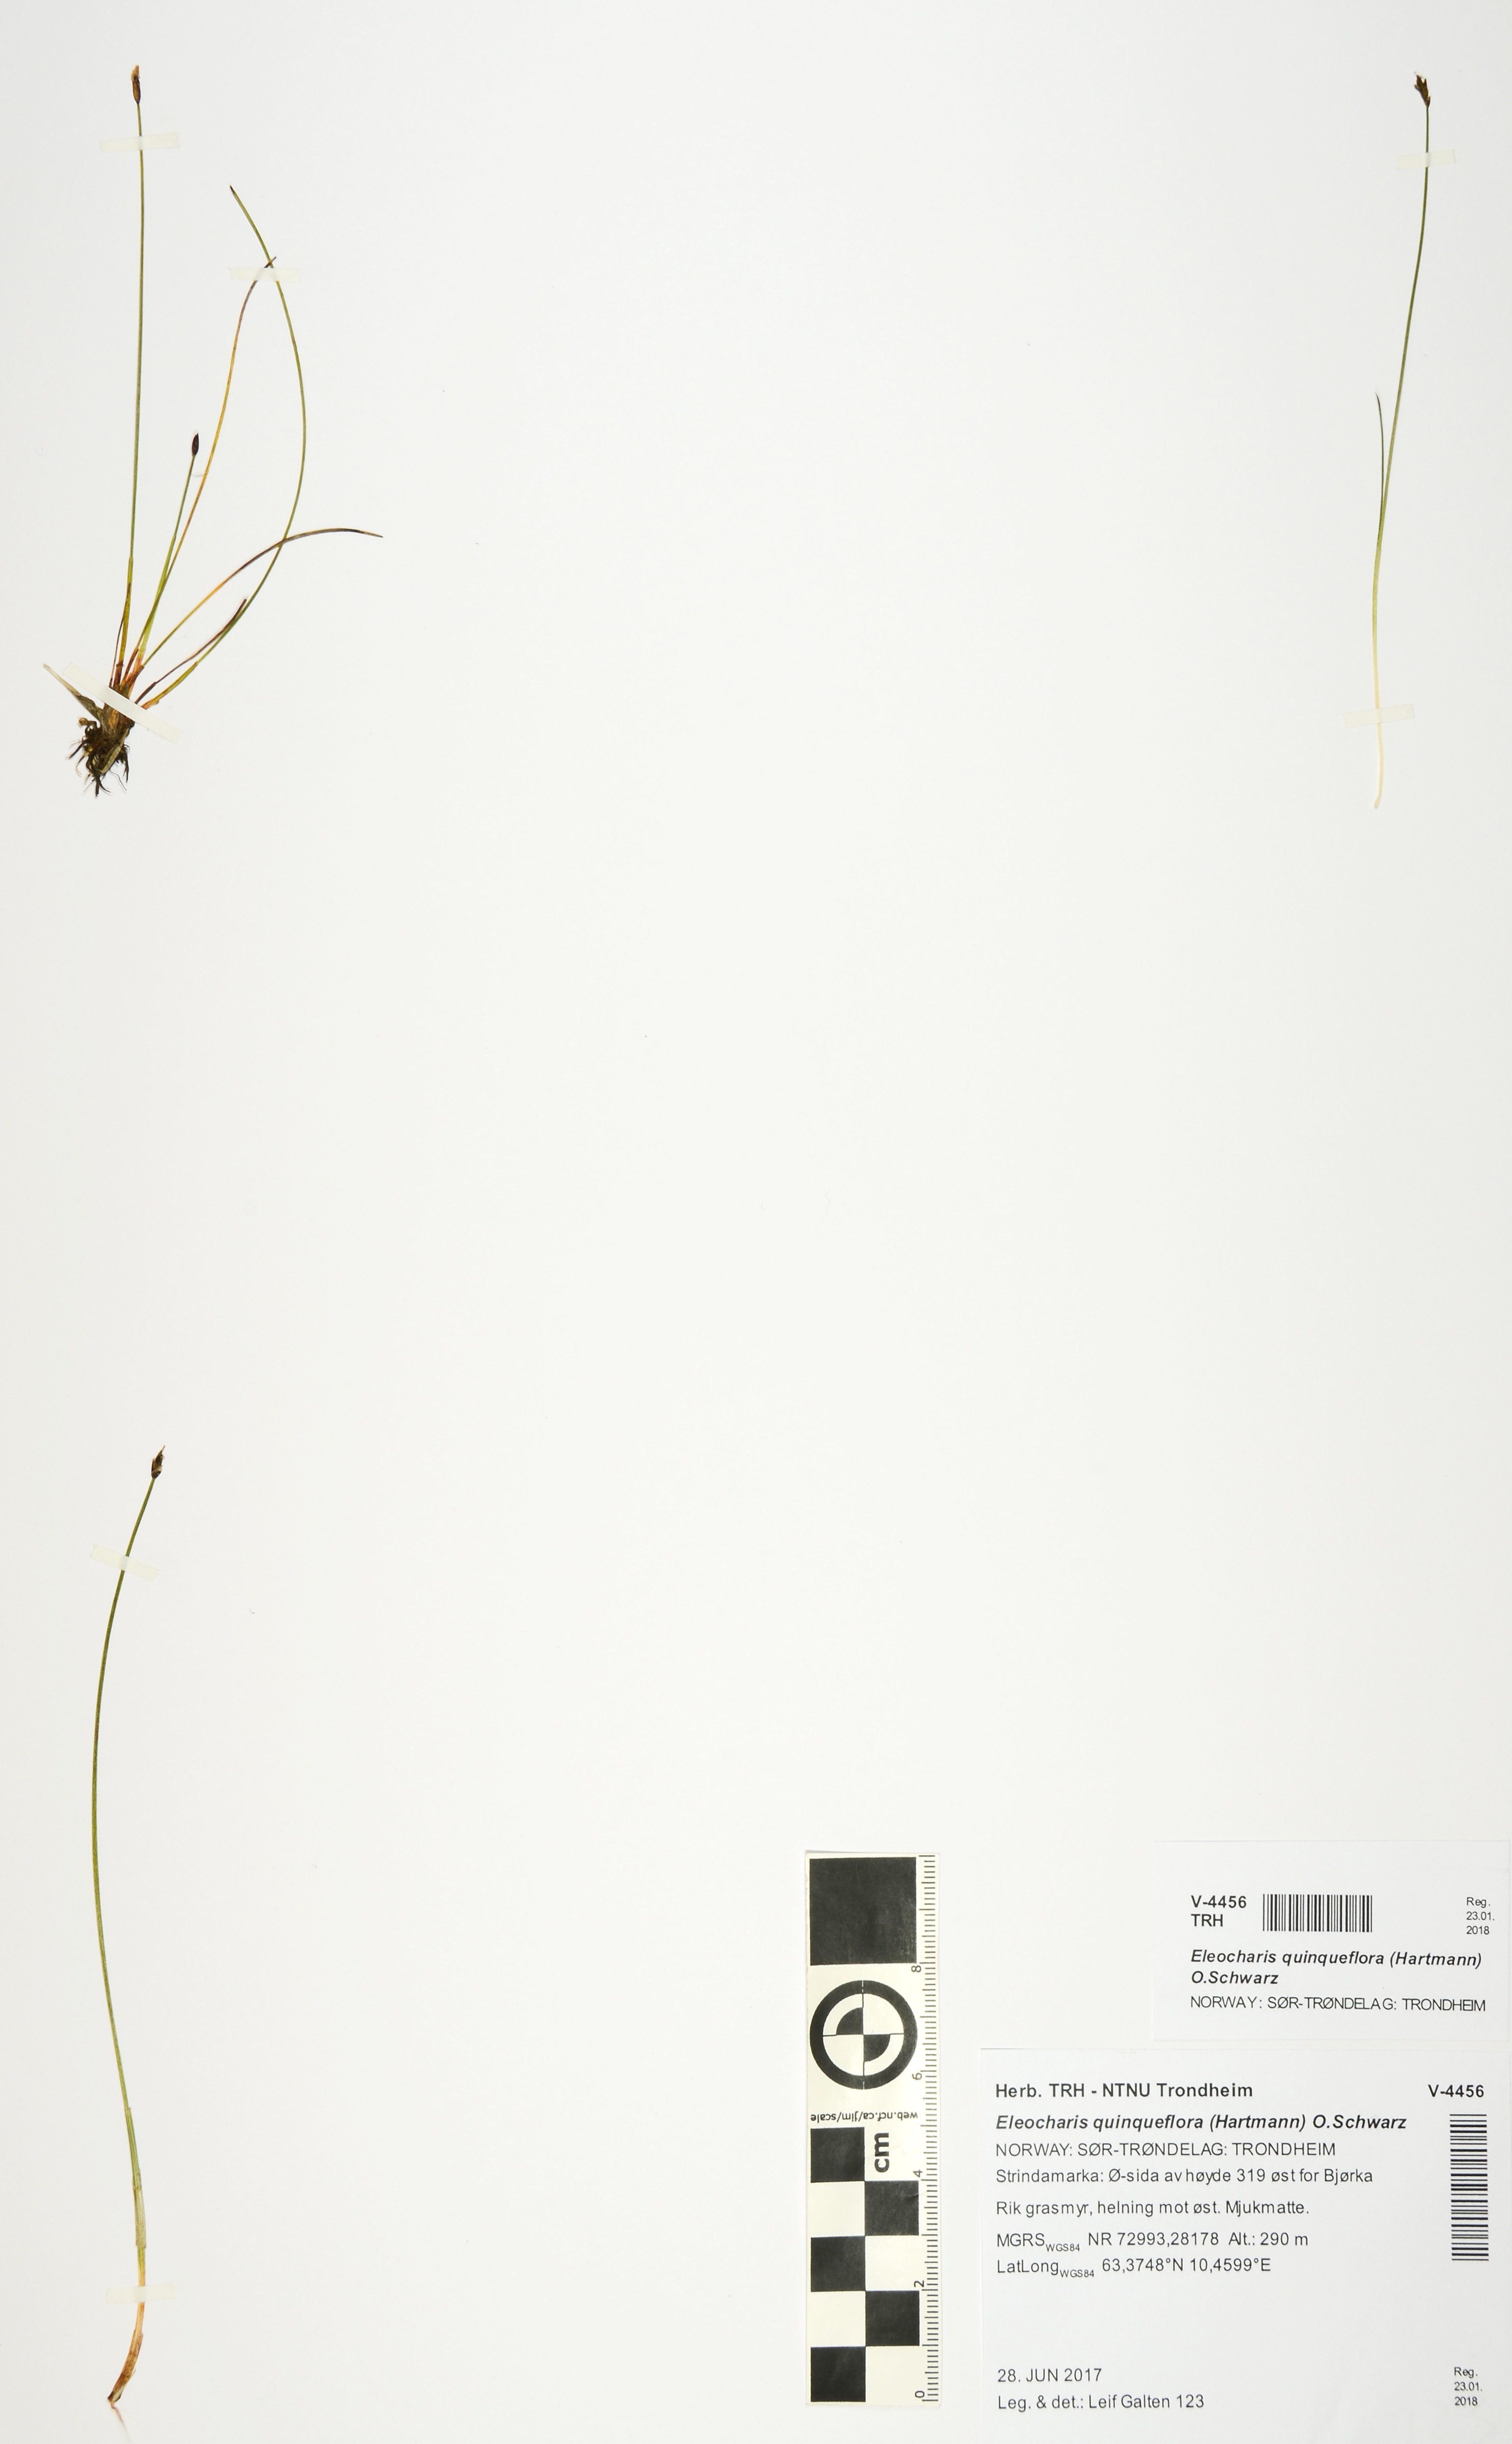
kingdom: Plantae
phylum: Tracheophyta
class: Liliopsida
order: Poales
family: Cyperaceae
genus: Eleocharis
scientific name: Eleocharis quinqueflora
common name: Few-flowered spike-rush
